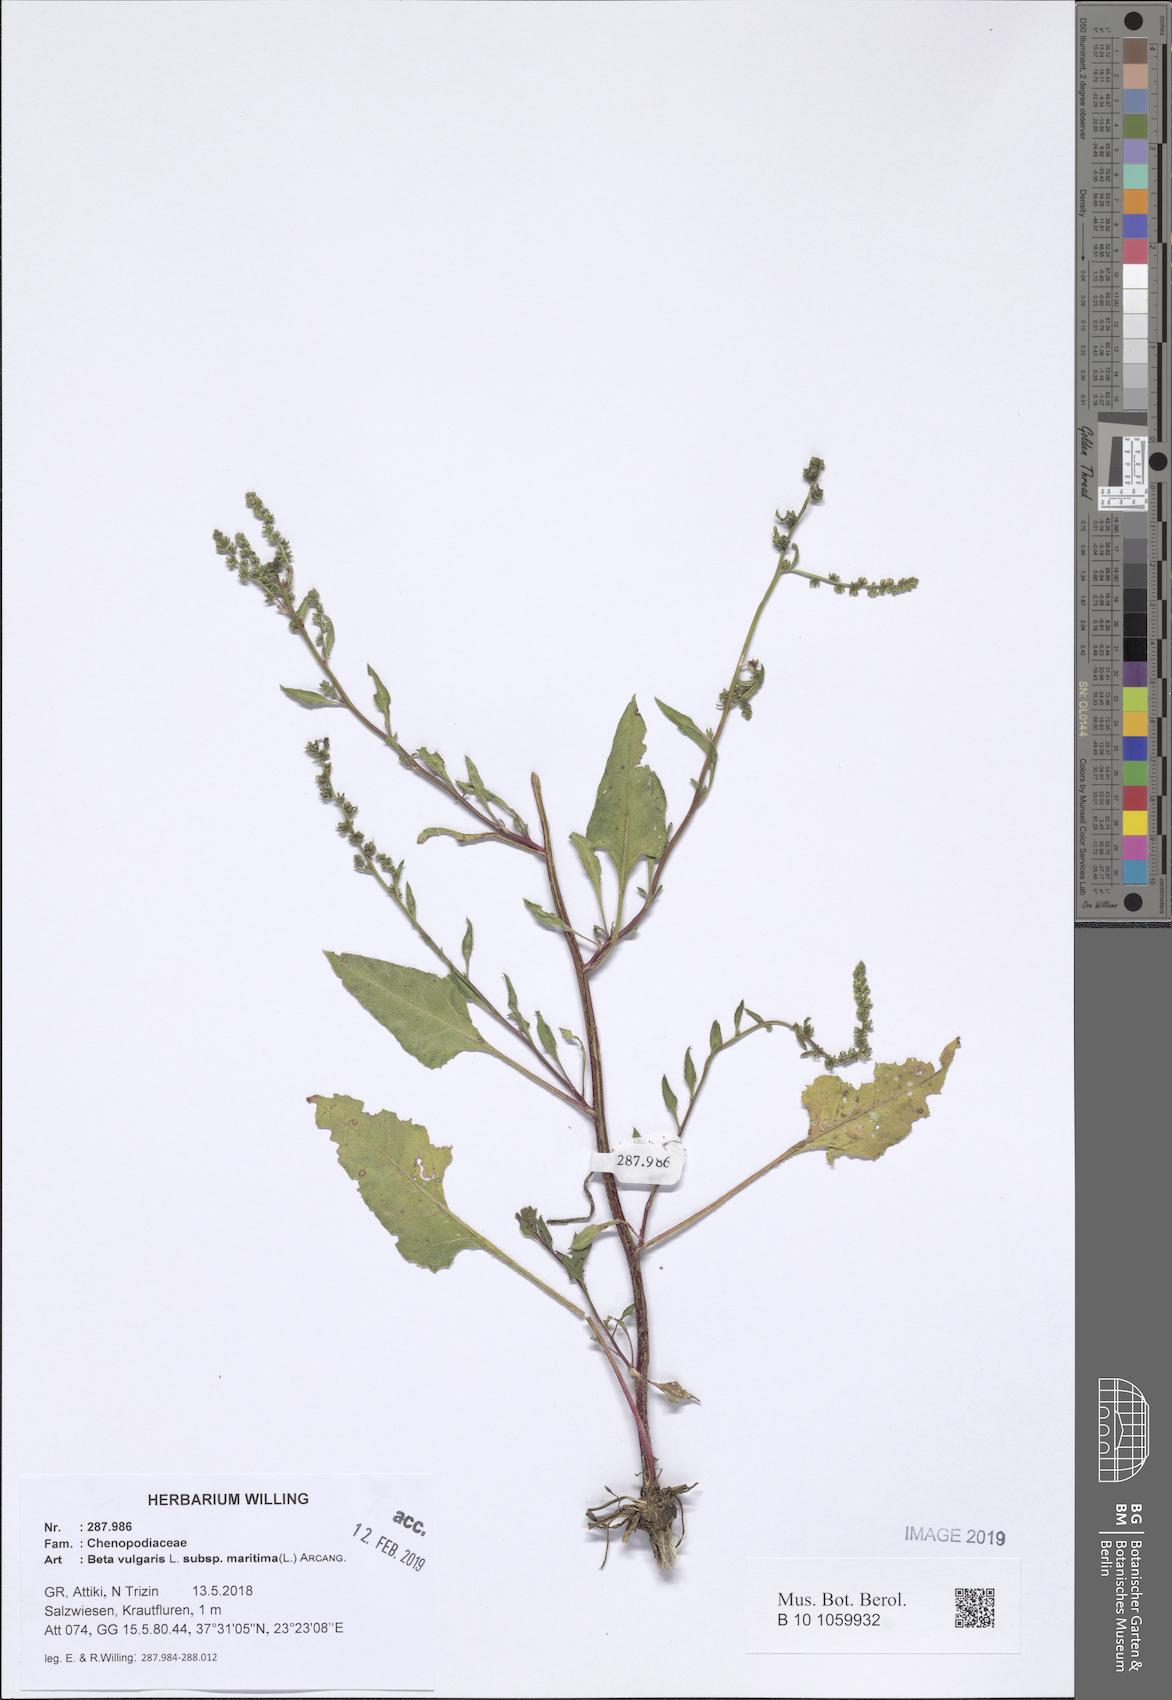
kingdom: Plantae
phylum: Tracheophyta
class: Magnoliopsida
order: Caryophyllales
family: Amaranthaceae
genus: Beta
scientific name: Beta maritima
